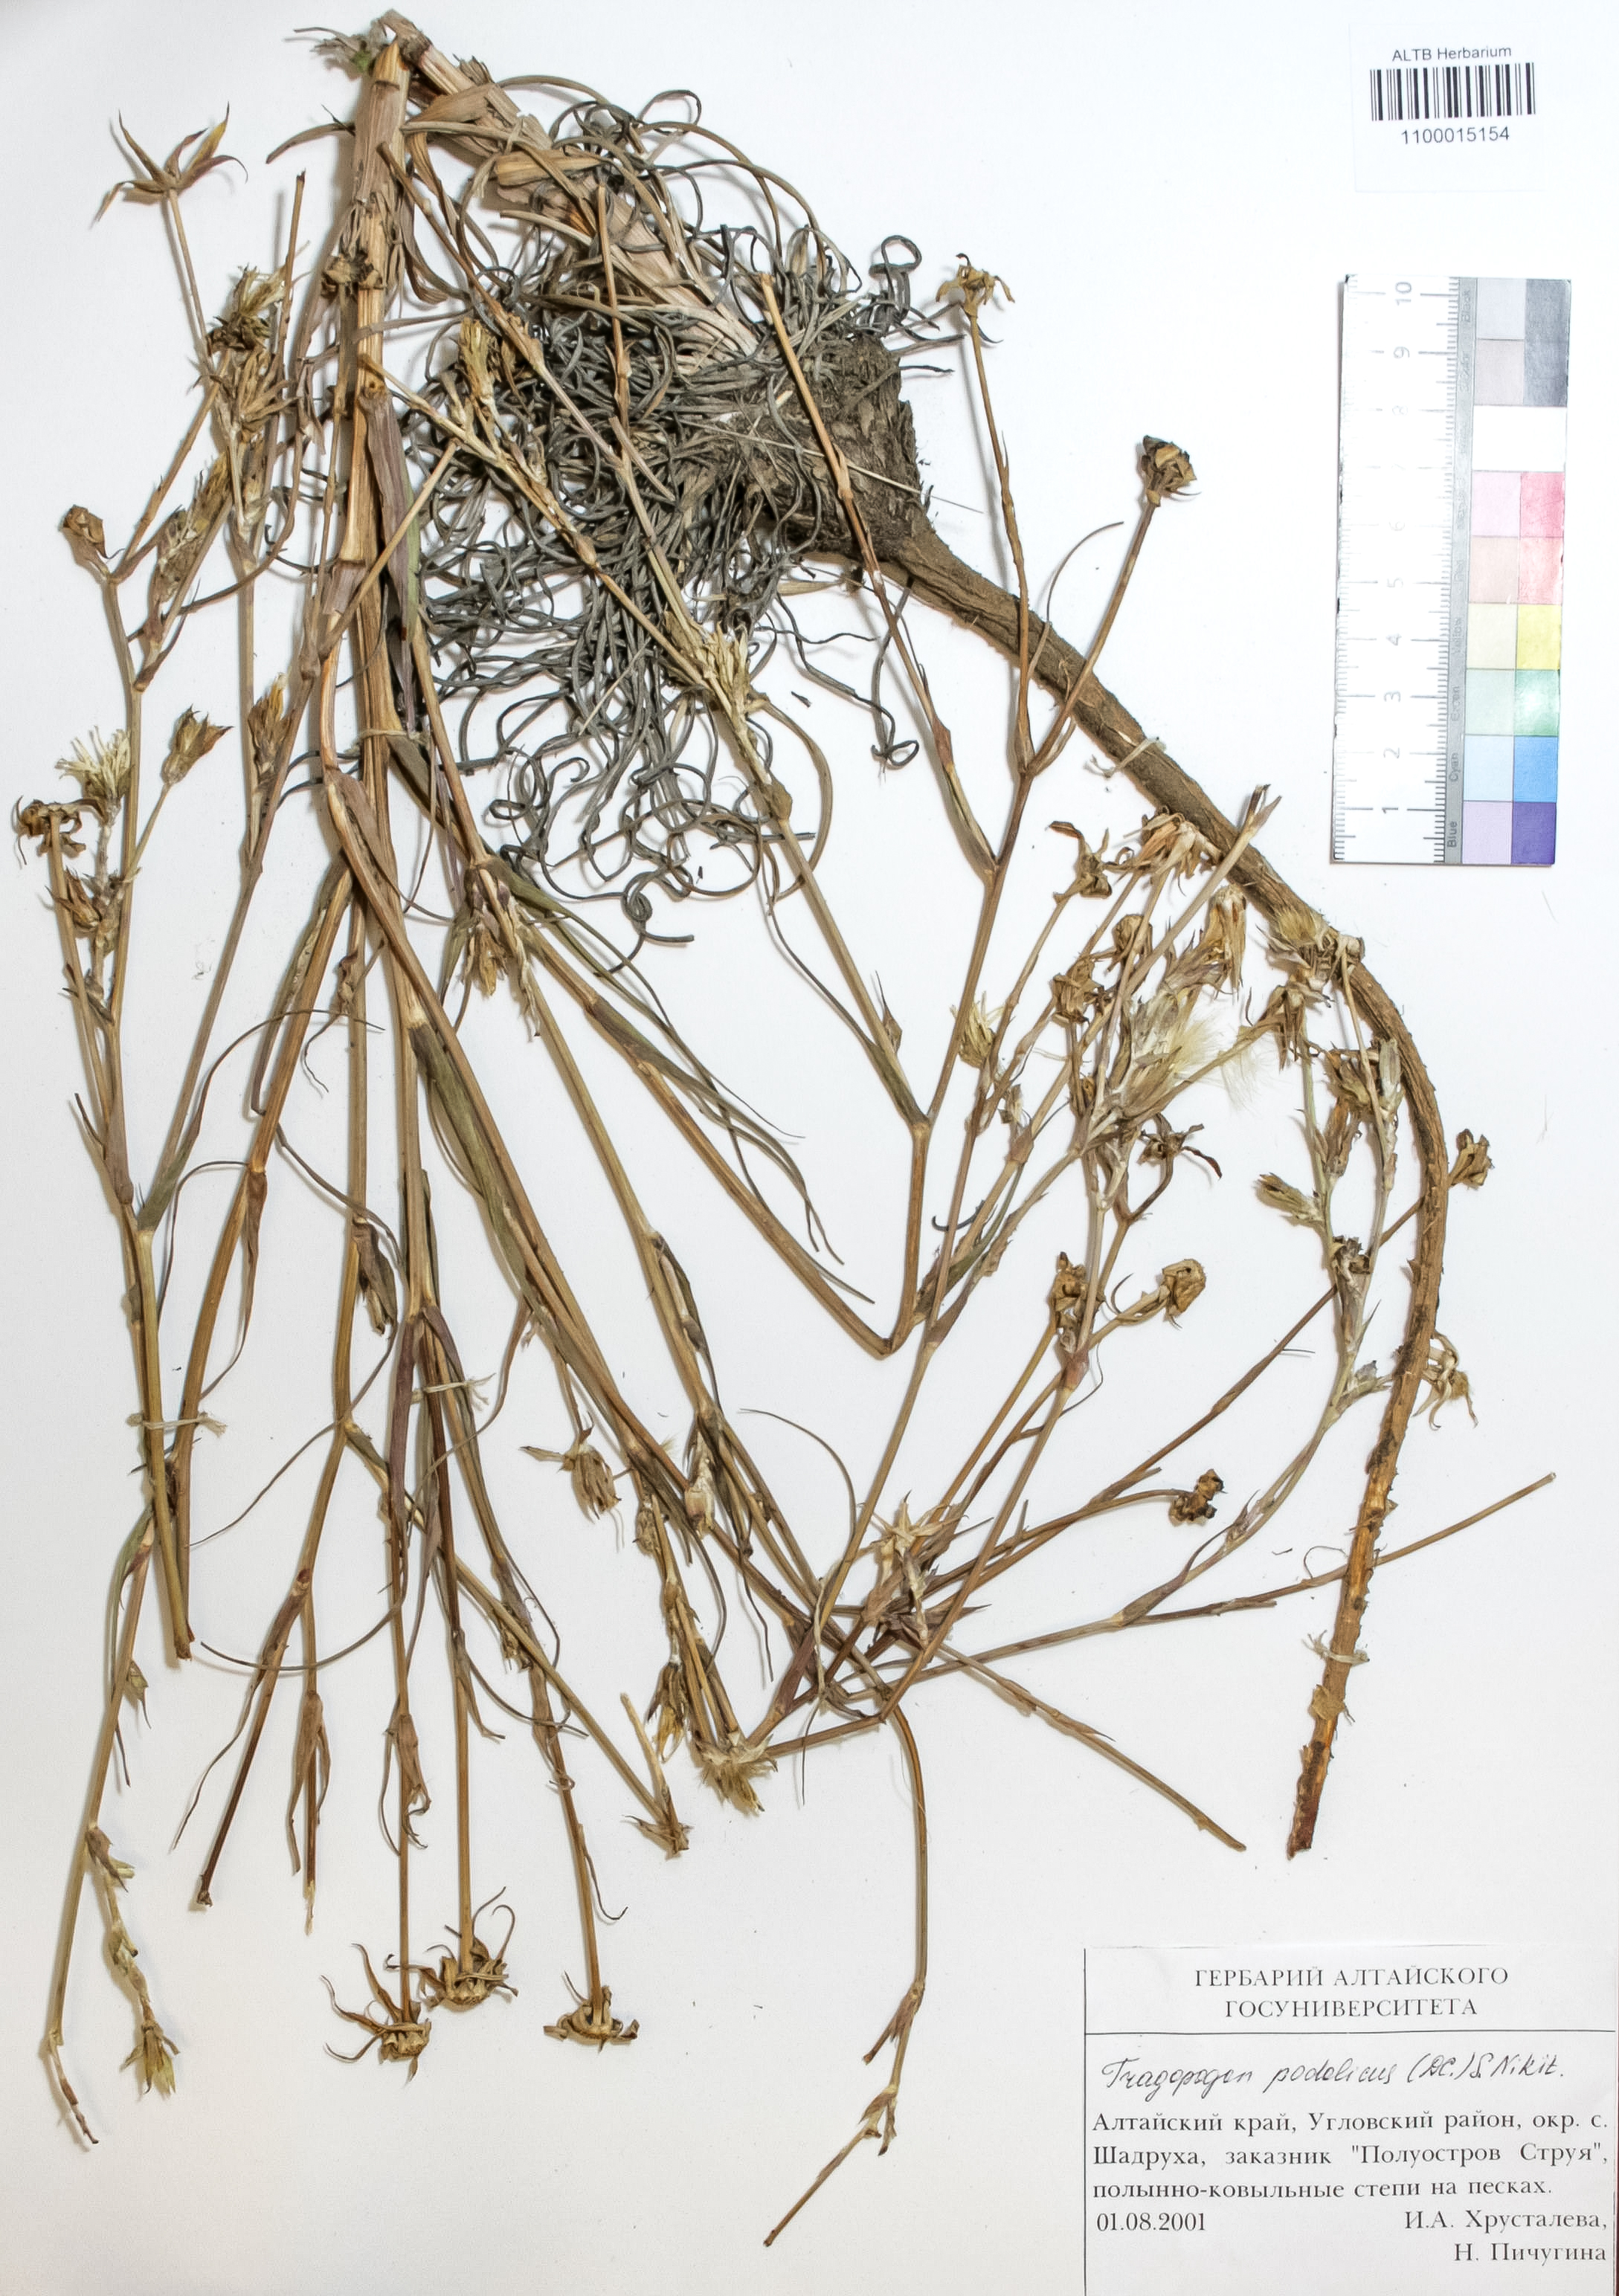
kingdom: Plantae
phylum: Tracheophyta
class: Magnoliopsida
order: Asterales
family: Asteraceae
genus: Tragopogon
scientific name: Tragopogon podolicus
